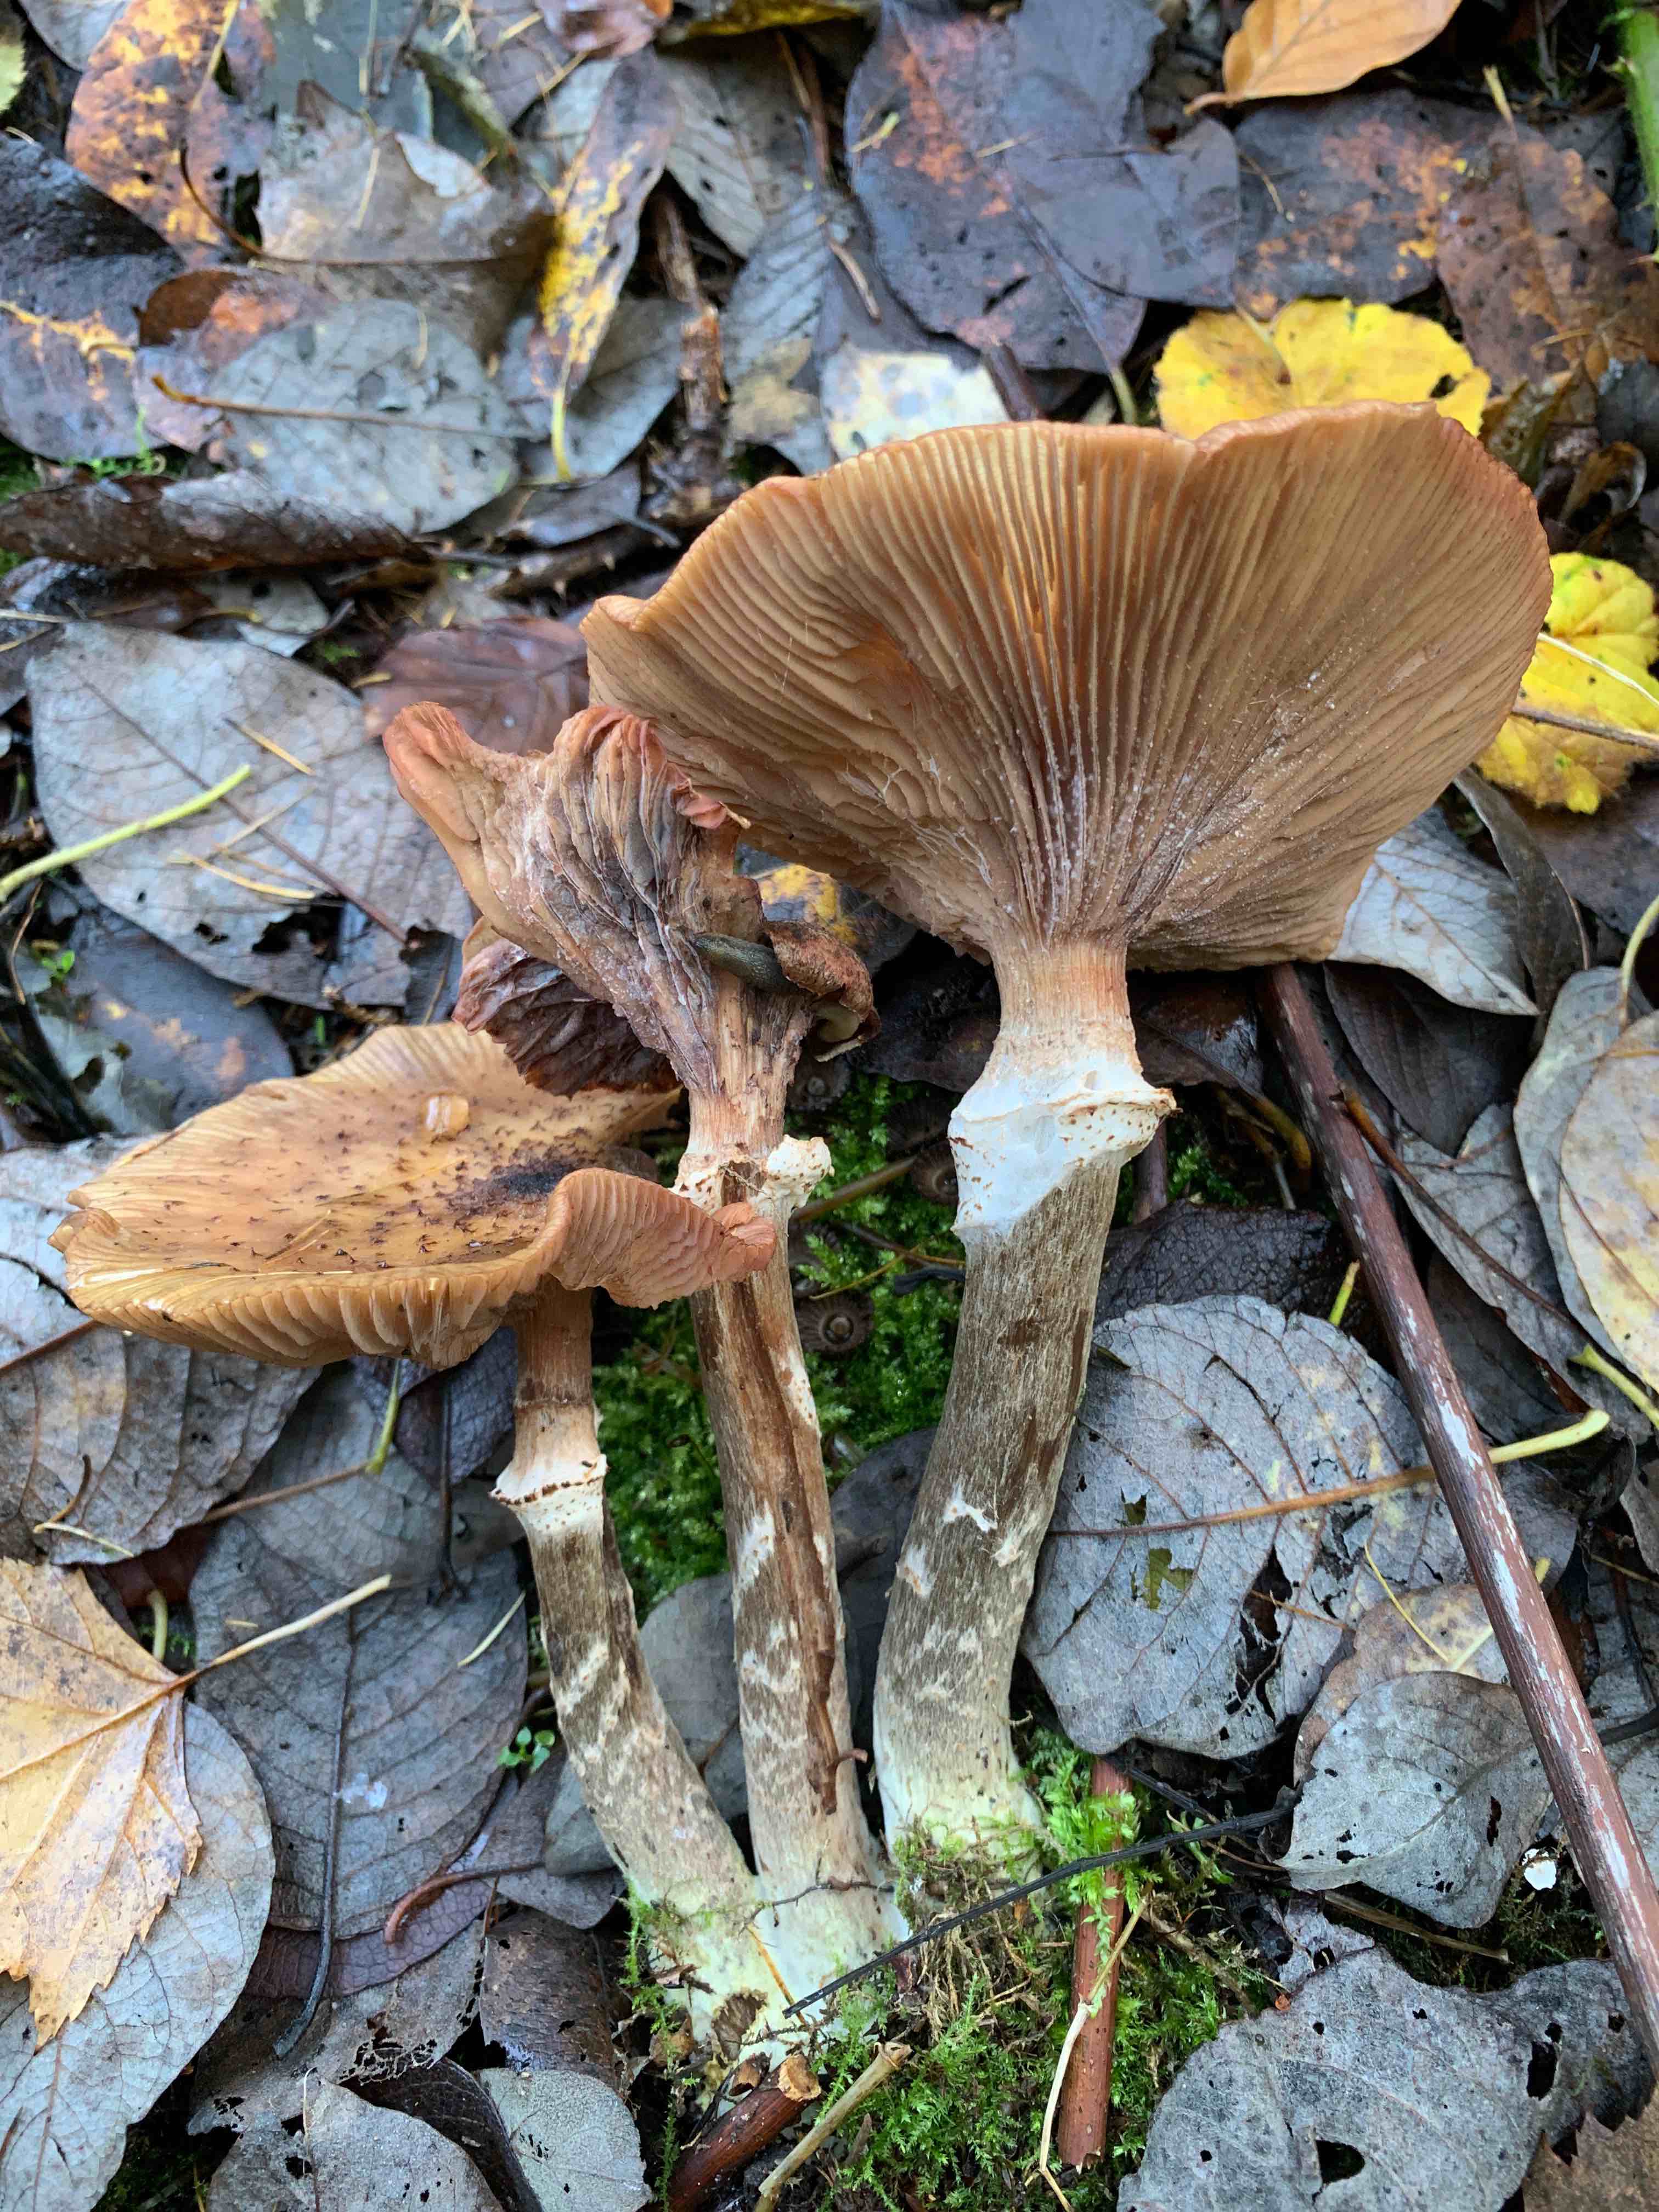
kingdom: Fungi
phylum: Basidiomycota
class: Agaricomycetes
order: Agaricales
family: Physalacriaceae
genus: Armillaria
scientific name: Armillaria
